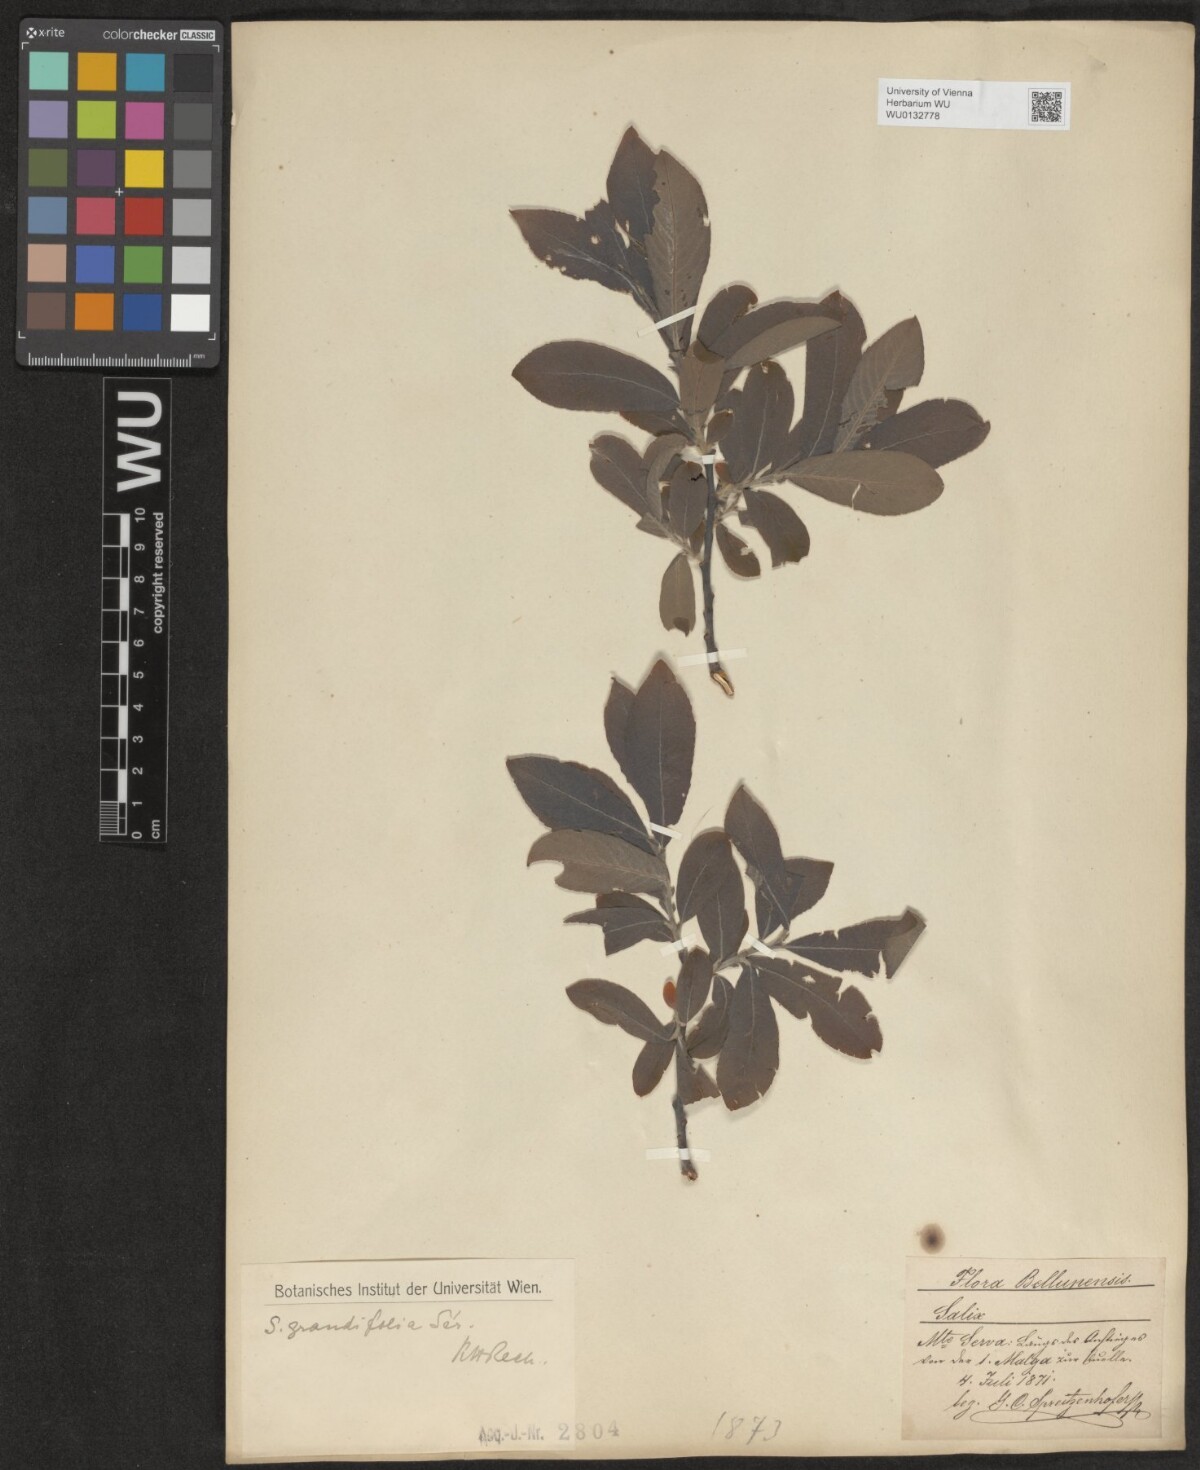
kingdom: Plantae
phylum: Tracheophyta
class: Magnoliopsida
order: Malpighiales
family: Salicaceae
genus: Salix
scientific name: Salix appendiculata
